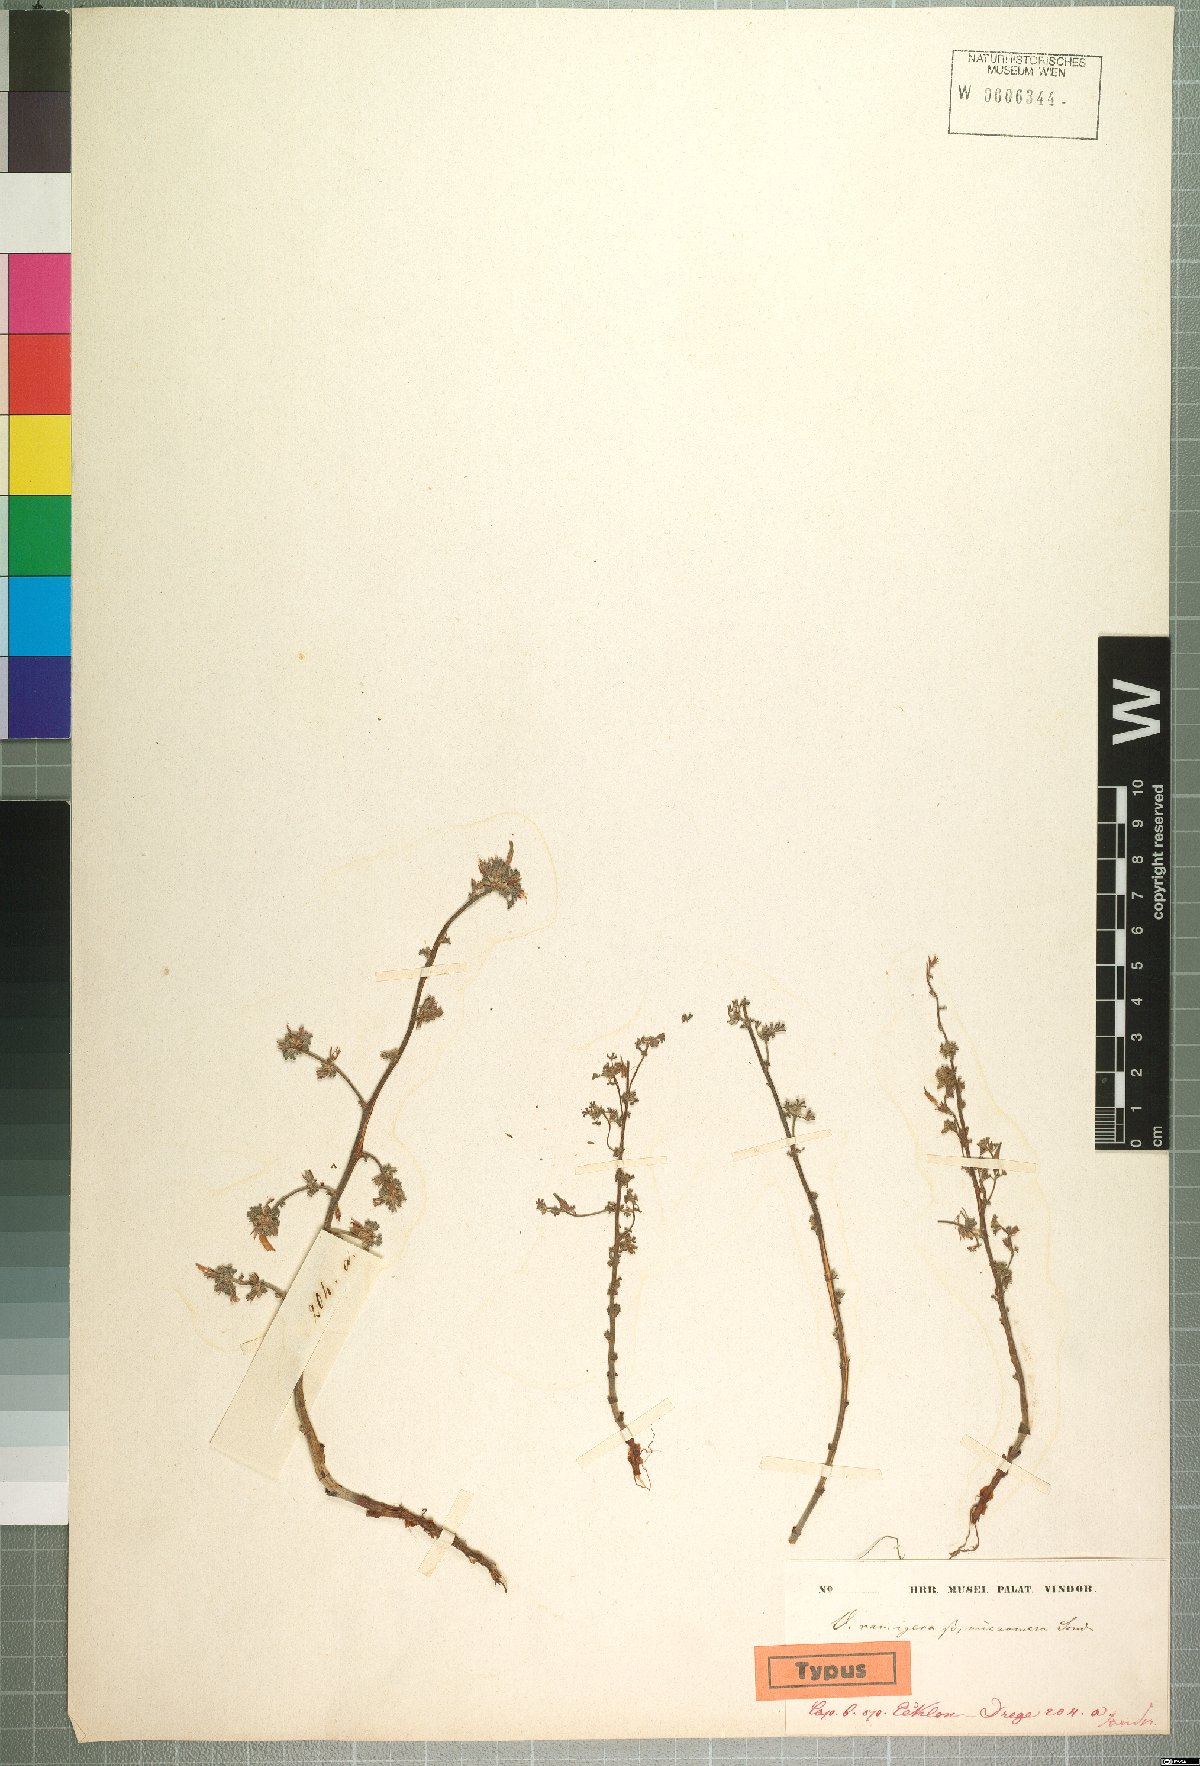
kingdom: Plantae
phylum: Tracheophyta
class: Magnoliopsida
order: Oxalidales
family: Oxalidaceae
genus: Oxalis
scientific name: Oxalis reclinata
